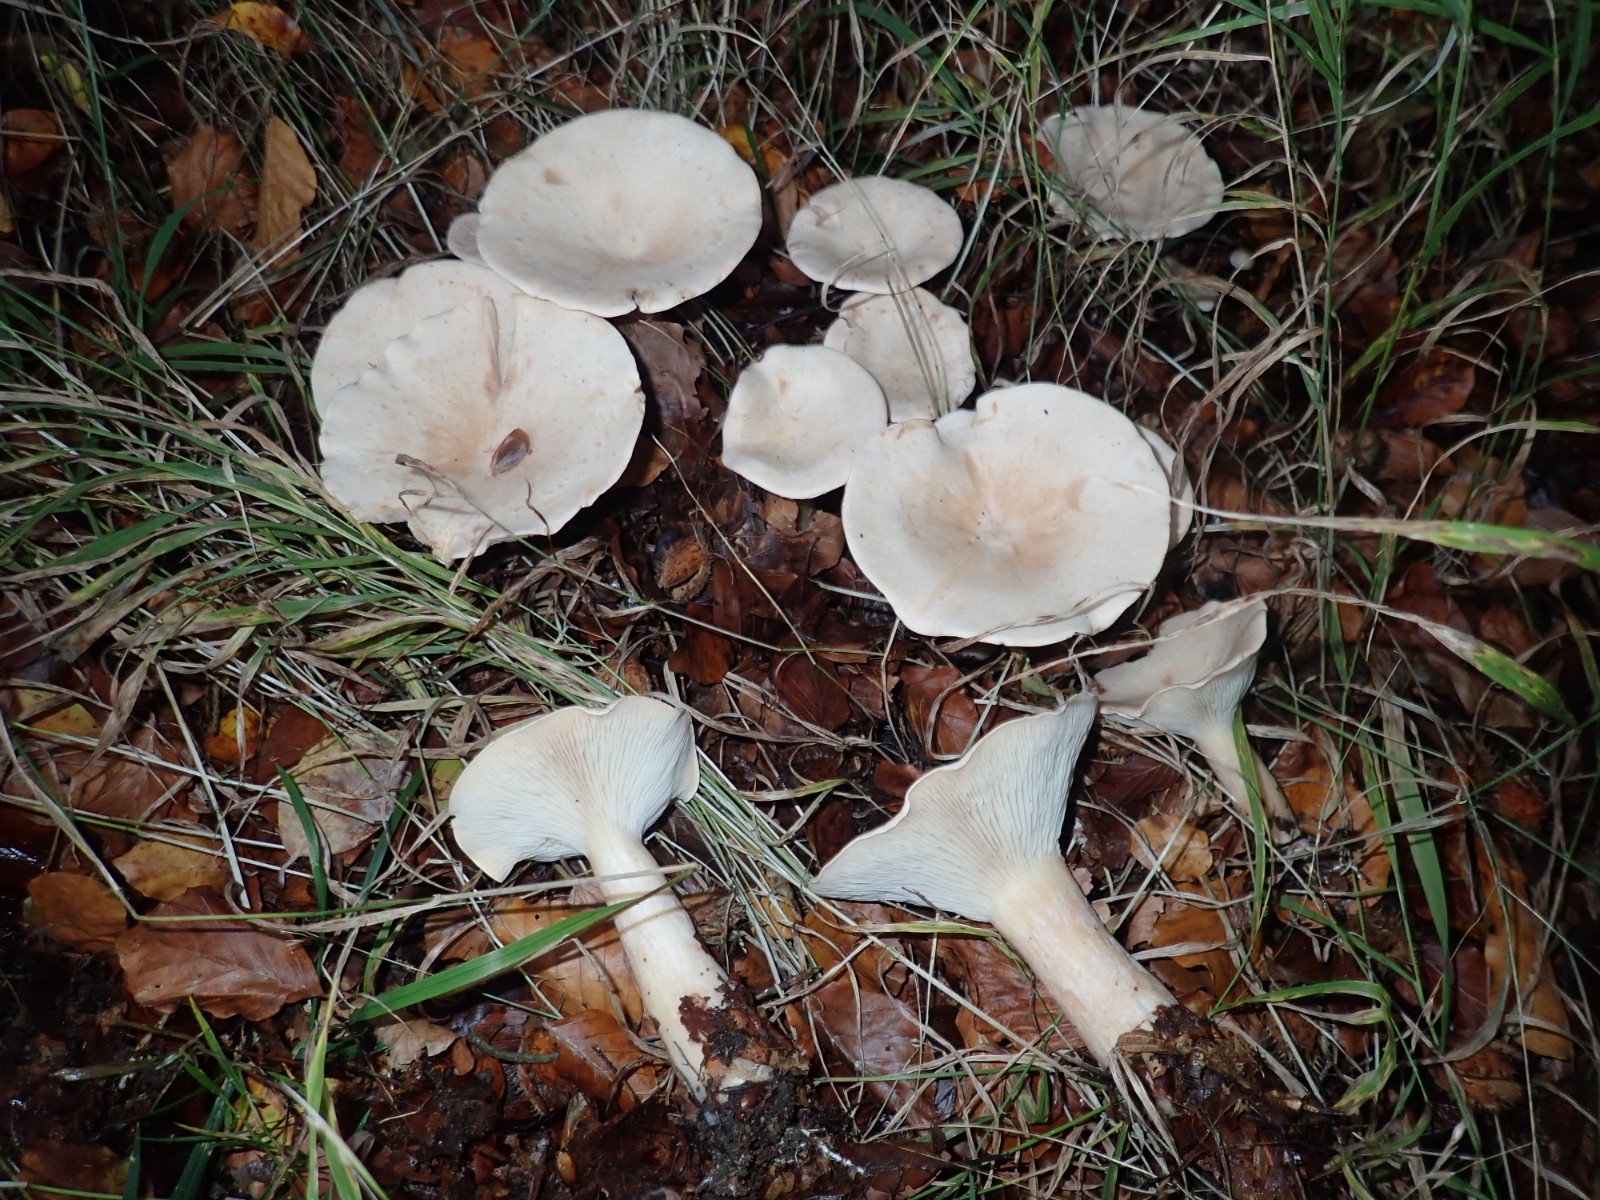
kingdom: Fungi
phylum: Basidiomycota
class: Agaricomycetes
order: Agaricales
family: Tricholomataceae
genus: Infundibulicybe
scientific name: Infundibulicybe geotropa
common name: stor tragthat
